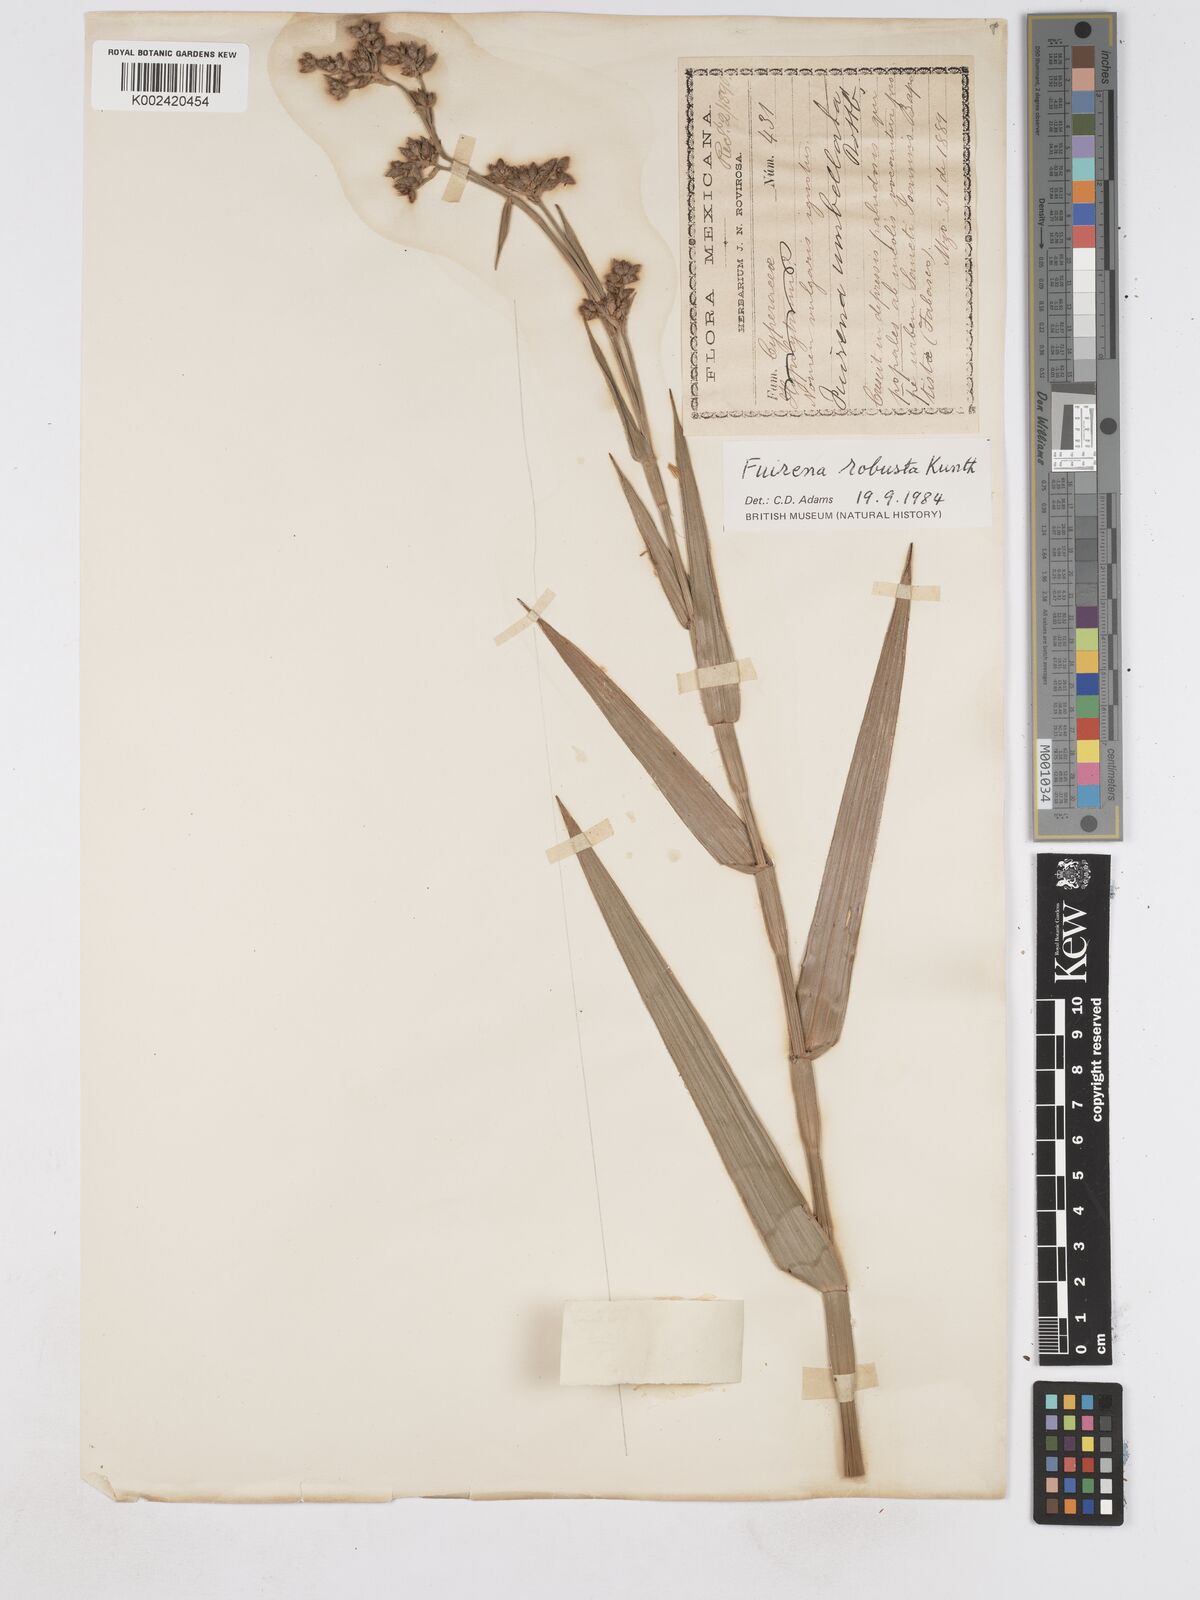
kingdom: Plantae
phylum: Tracheophyta
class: Liliopsida
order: Poales
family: Cyperaceae
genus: Fuirena
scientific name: Fuirena robusta
